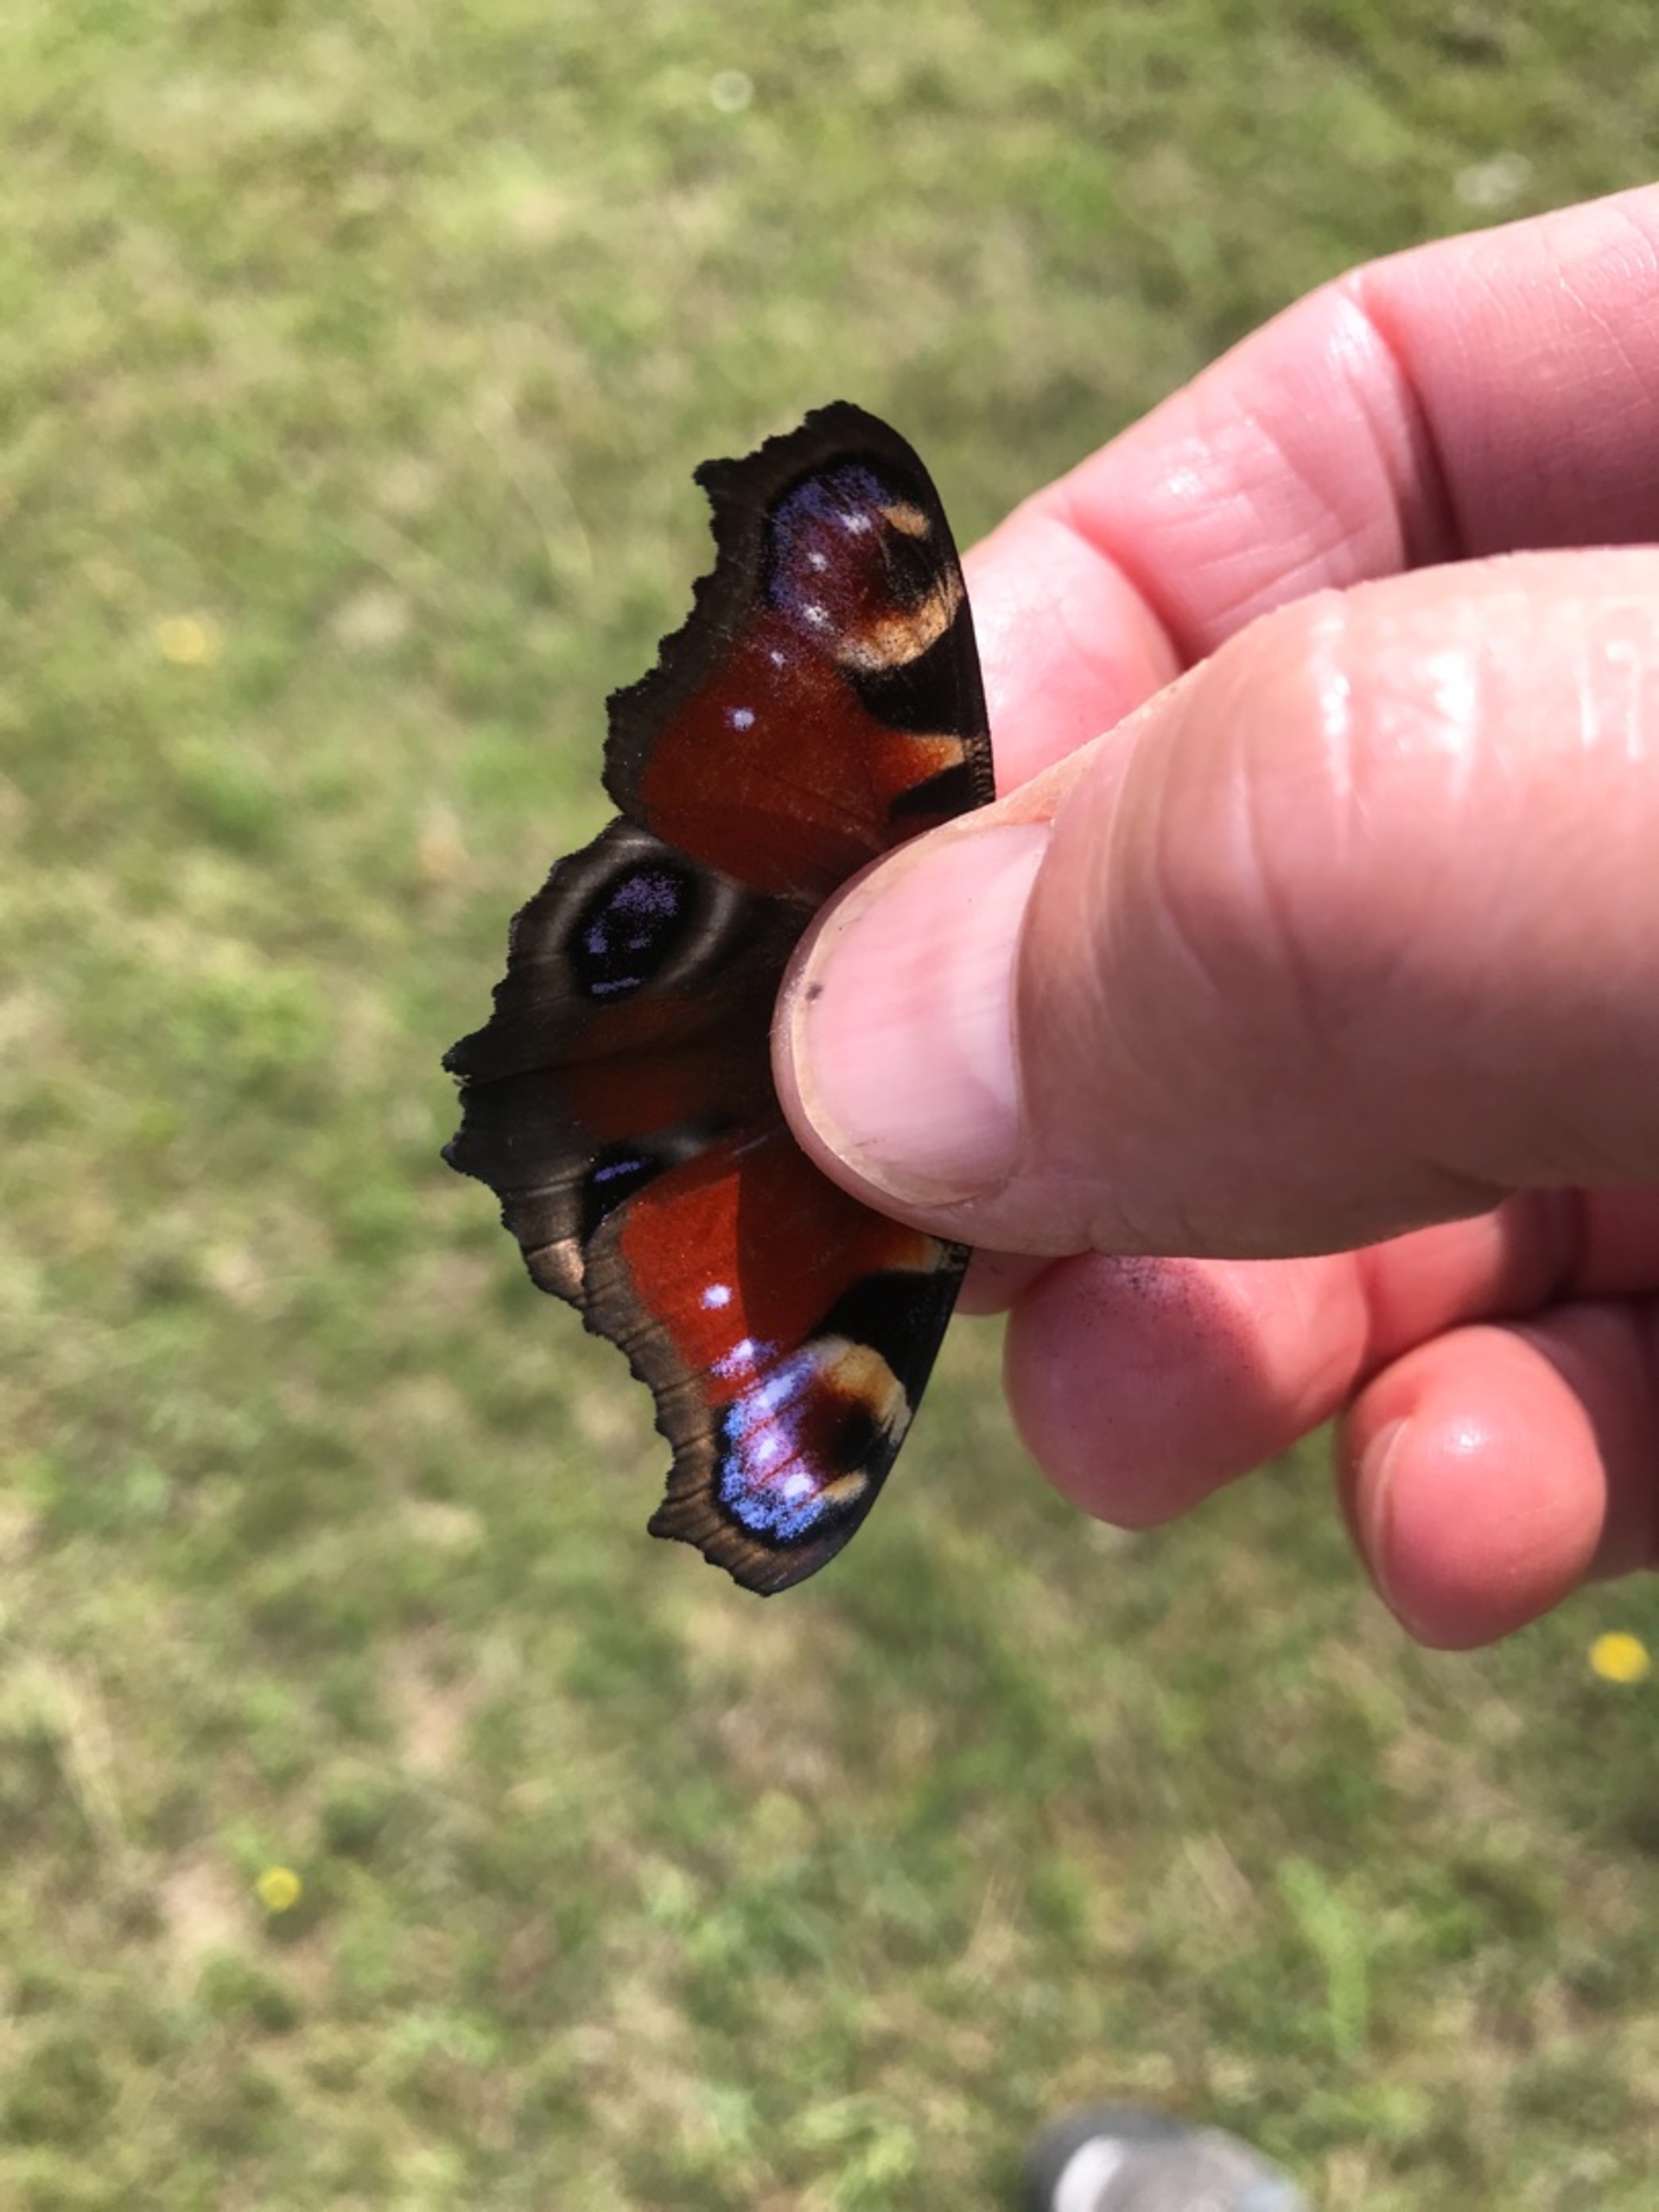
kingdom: Animalia
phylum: Arthropoda
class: Insecta
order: Lepidoptera
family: Nymphalidae
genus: Aglais
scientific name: Aglais io
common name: Dagpåfugleøje
